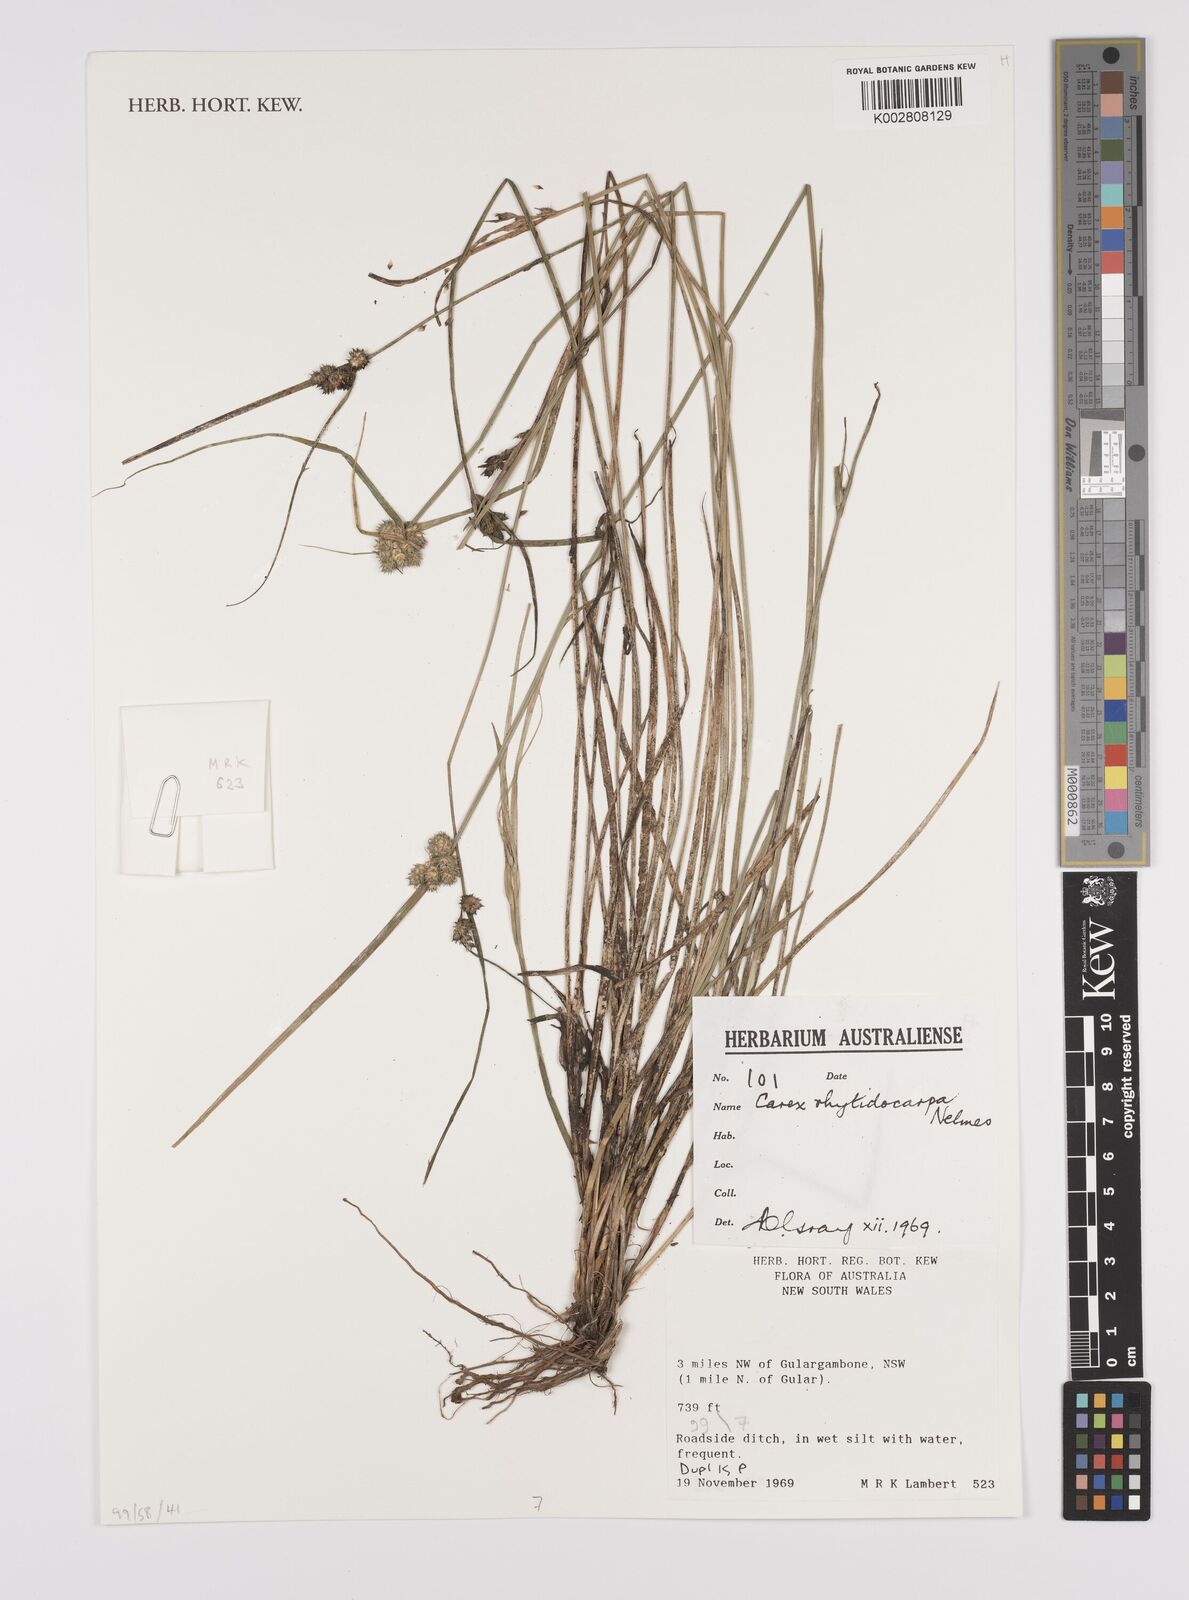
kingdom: Plantae
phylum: Tracheophyta
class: Liliopsida
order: Poales
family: Cyperaceae
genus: Carex
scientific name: Carex inversa
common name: Knob sedge
